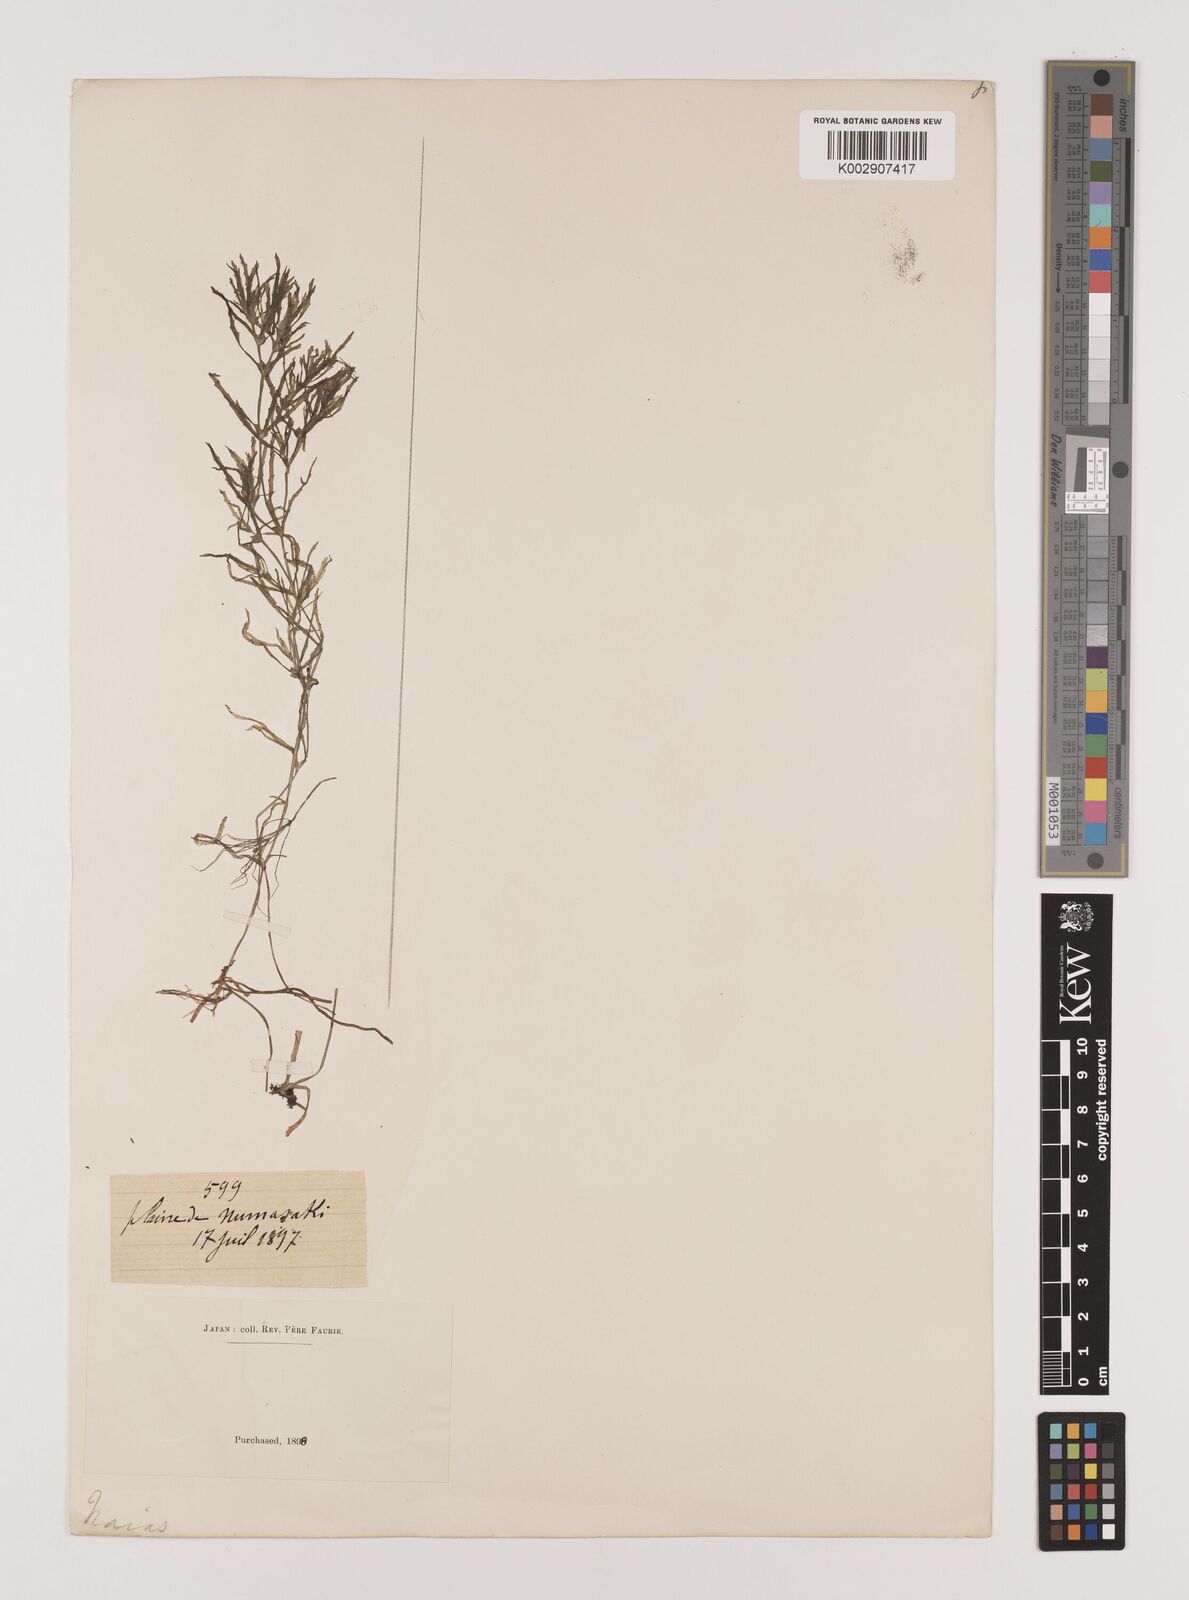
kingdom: Plantae
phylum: Tracheophyta
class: Liliopsida
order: Alismatales
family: Hydrocharitaceae
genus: Najas
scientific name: Najas marina
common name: Holly-leaved naiad
